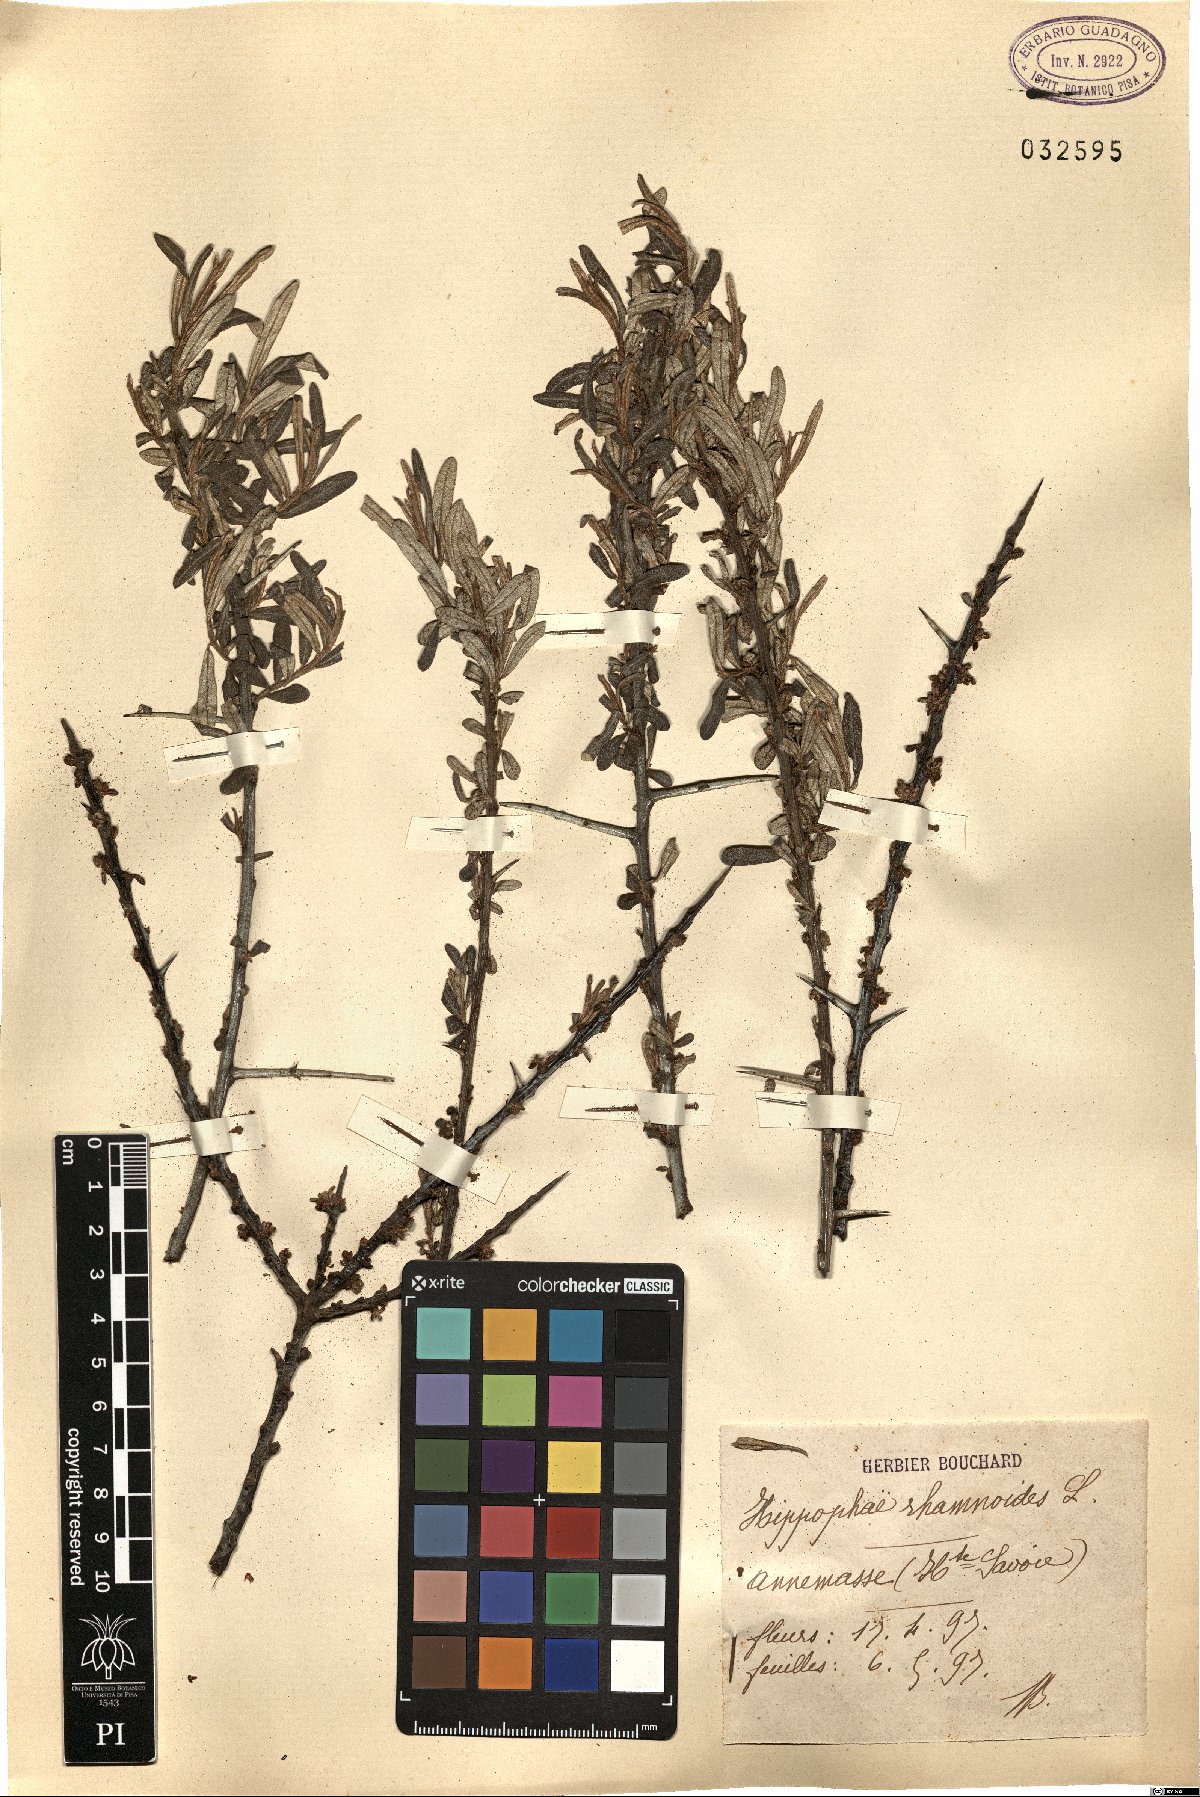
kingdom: Plantae
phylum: Tracheophyta
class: Magnoliopsida
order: Rosales
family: Elaeagnaceae
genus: Hippophae
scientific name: Hippophae rhamnoides
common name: Sea-buckthorn
